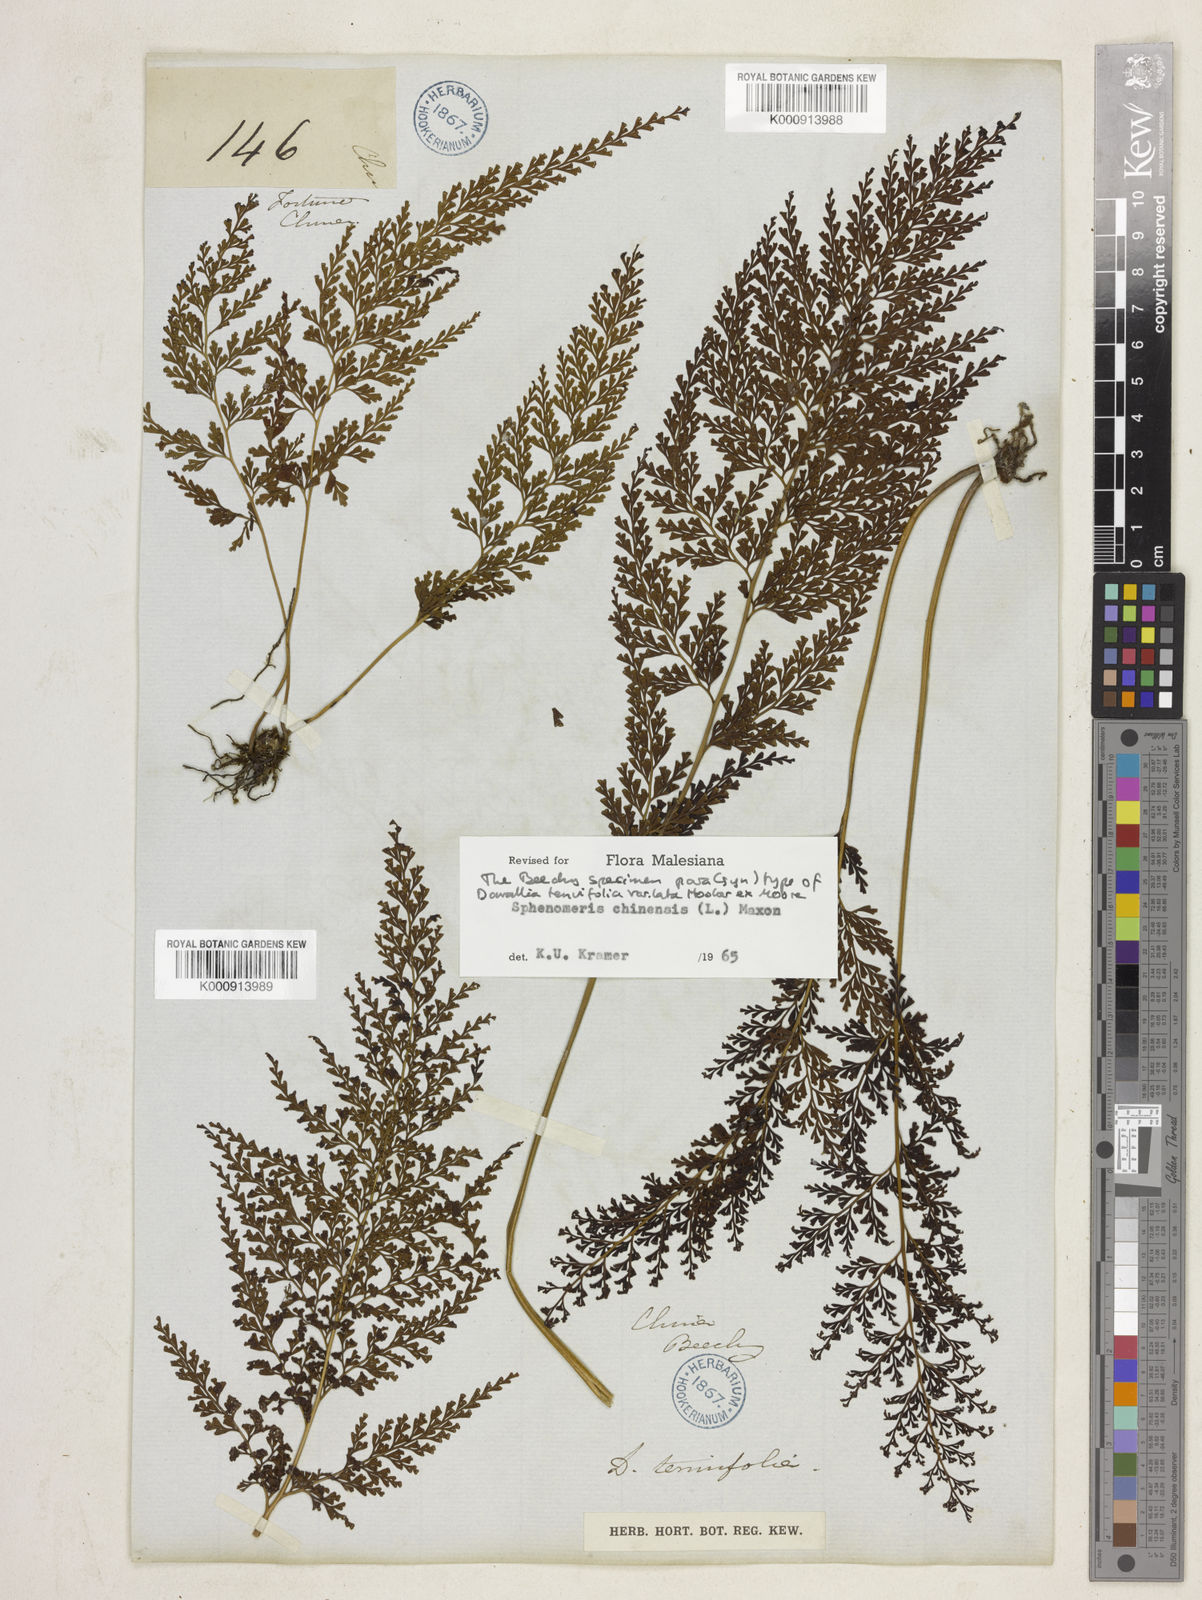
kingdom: Plantae
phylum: Tracheophyta
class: Polypodiopsida
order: Polypodiales
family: Lindsaeaceae
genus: Odontosoria
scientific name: Odontosoria chinensis
